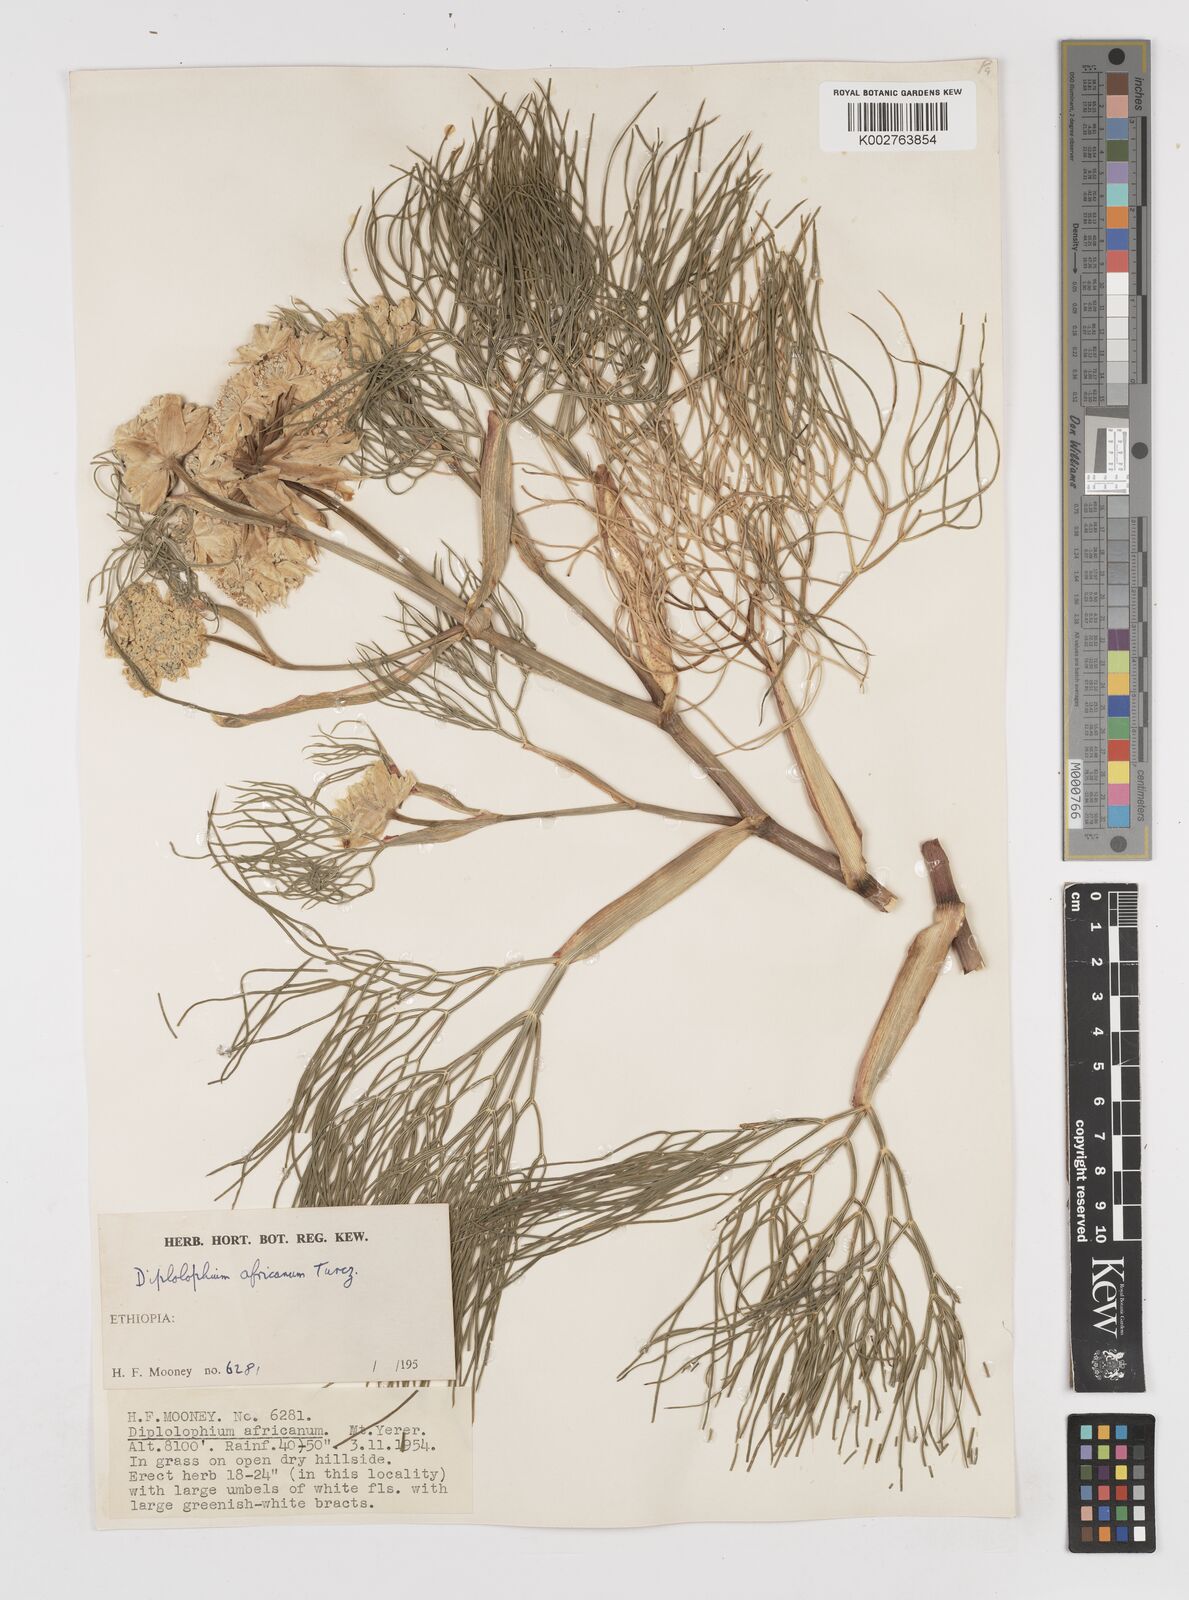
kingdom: Plantae
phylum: Tracheophyta
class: Magnoliopsida
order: Apiales
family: Apiaceae
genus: Diplolophium
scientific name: Diplolophium africanum
